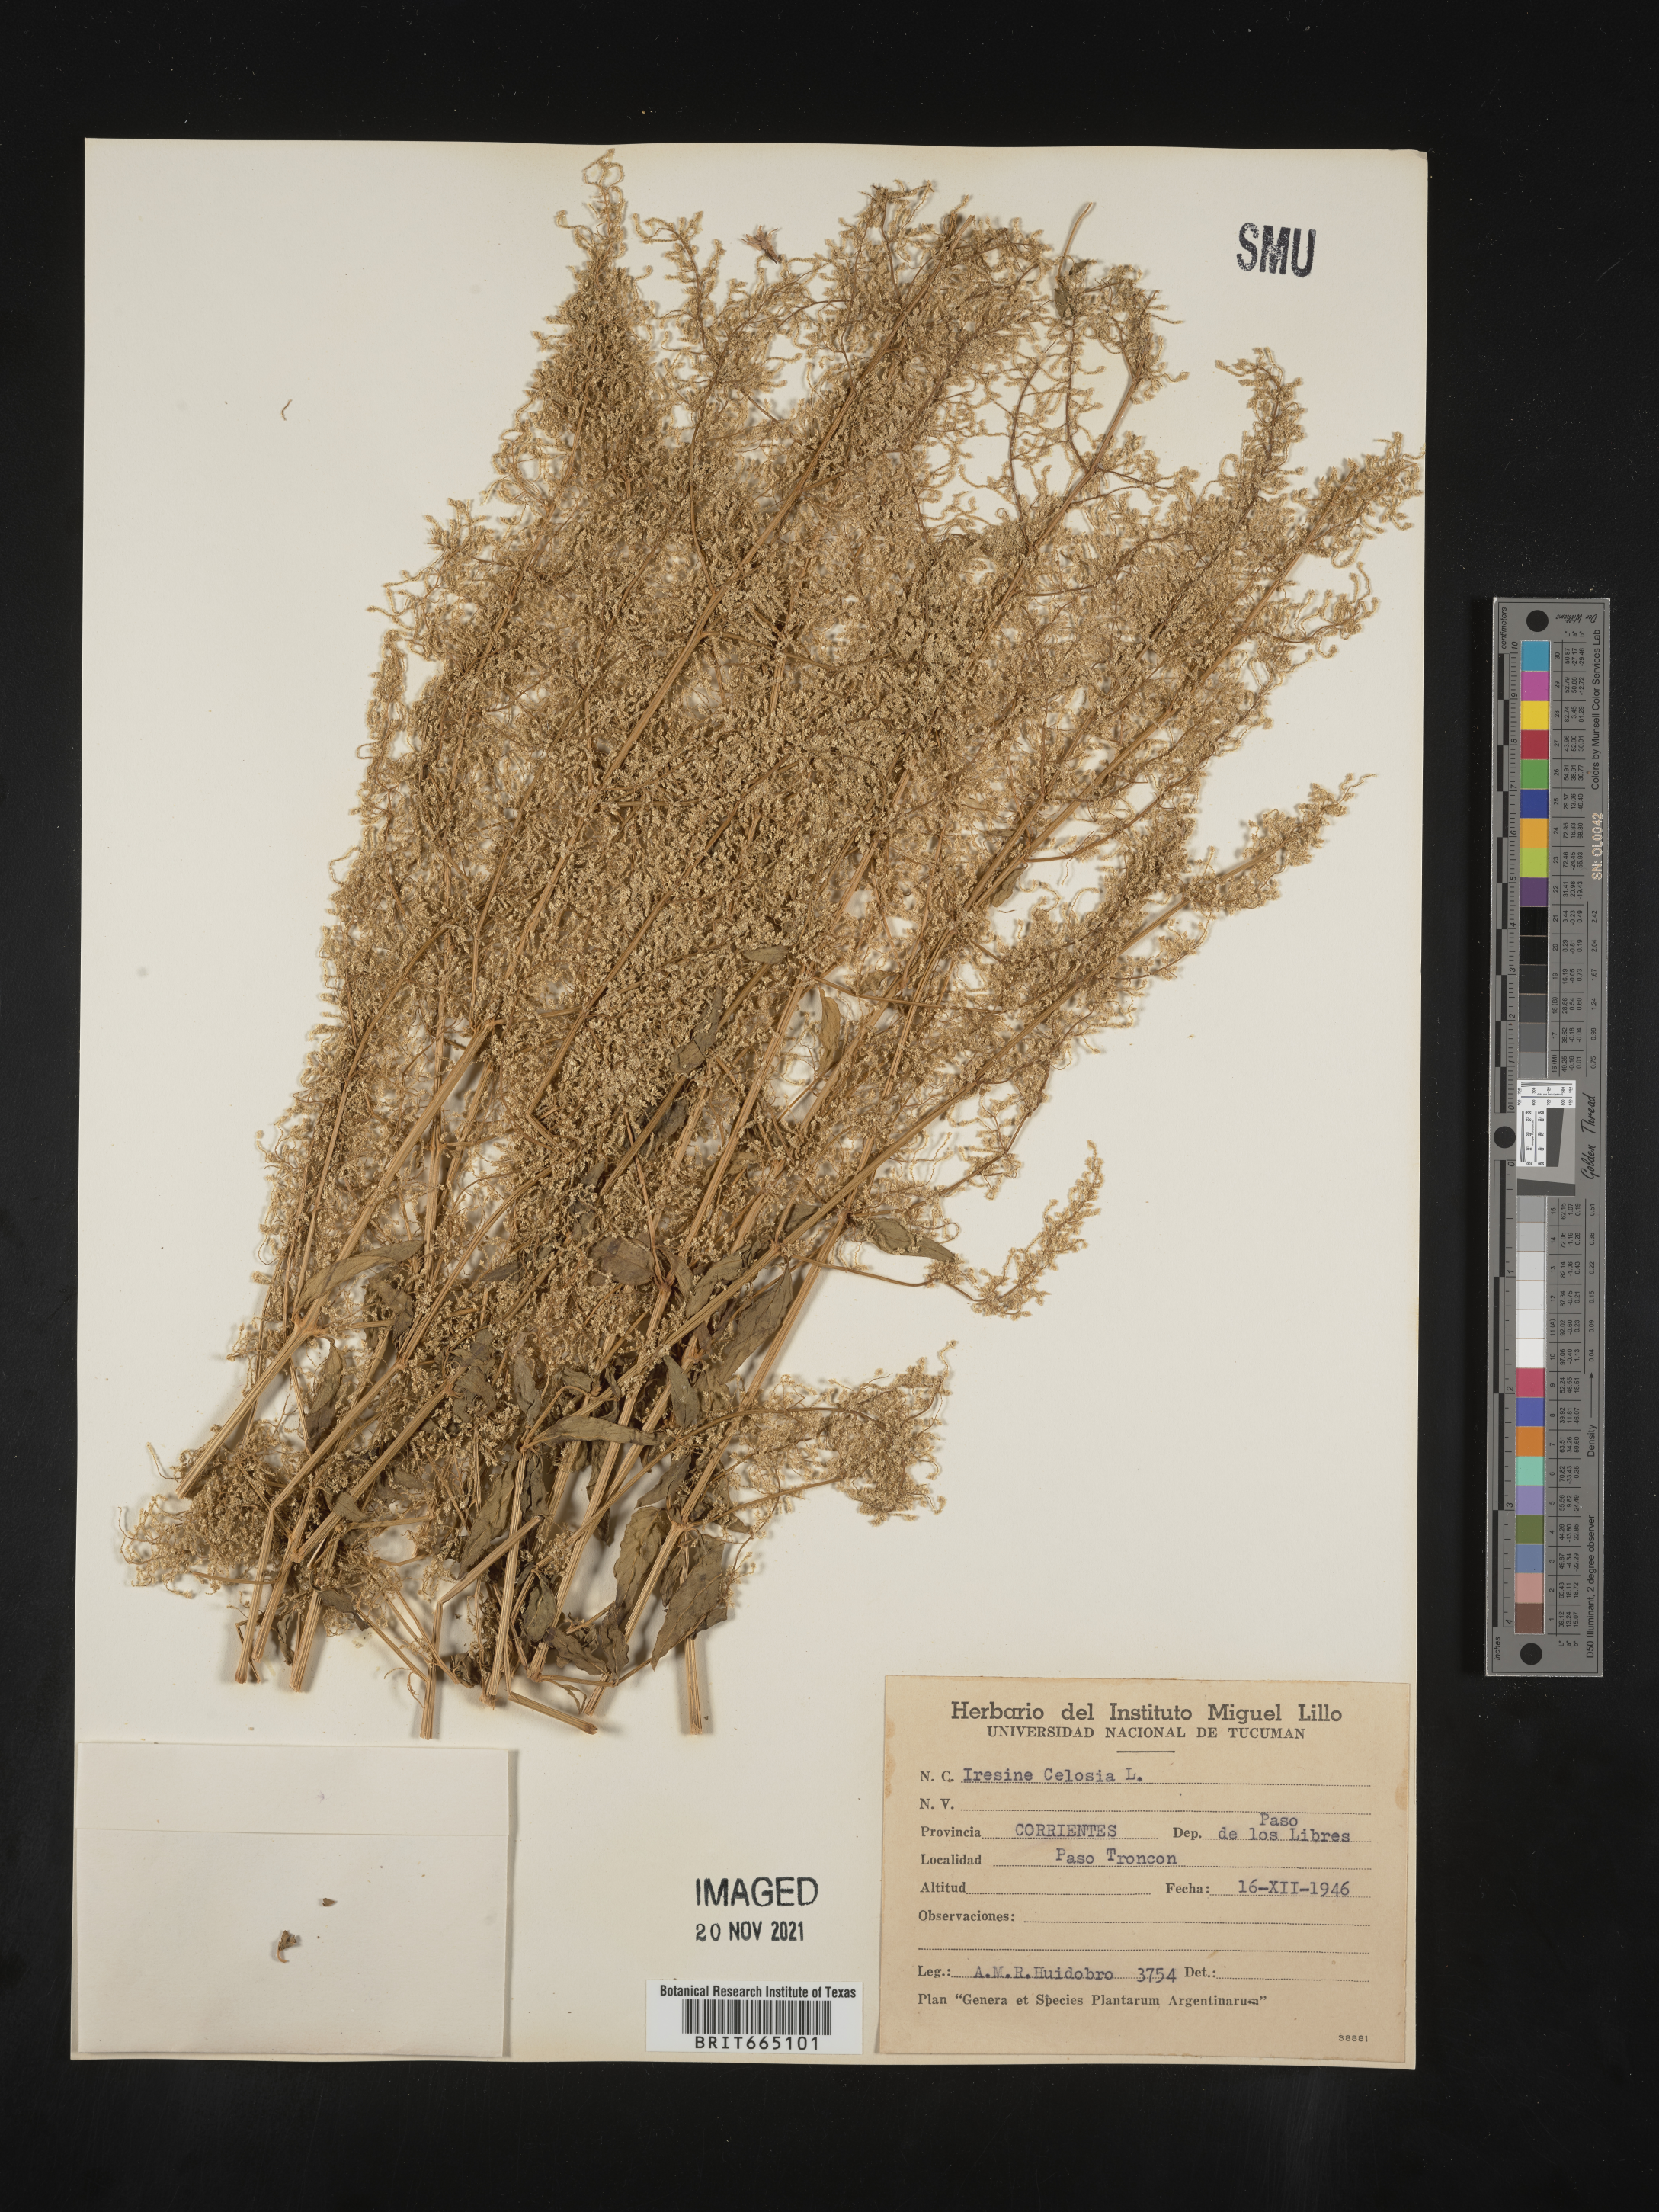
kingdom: Plantae
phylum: Tracheophyta
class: Magnoliopsida
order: Caryophyllales
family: Amaranthaceae
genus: Iresine
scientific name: Iresine
